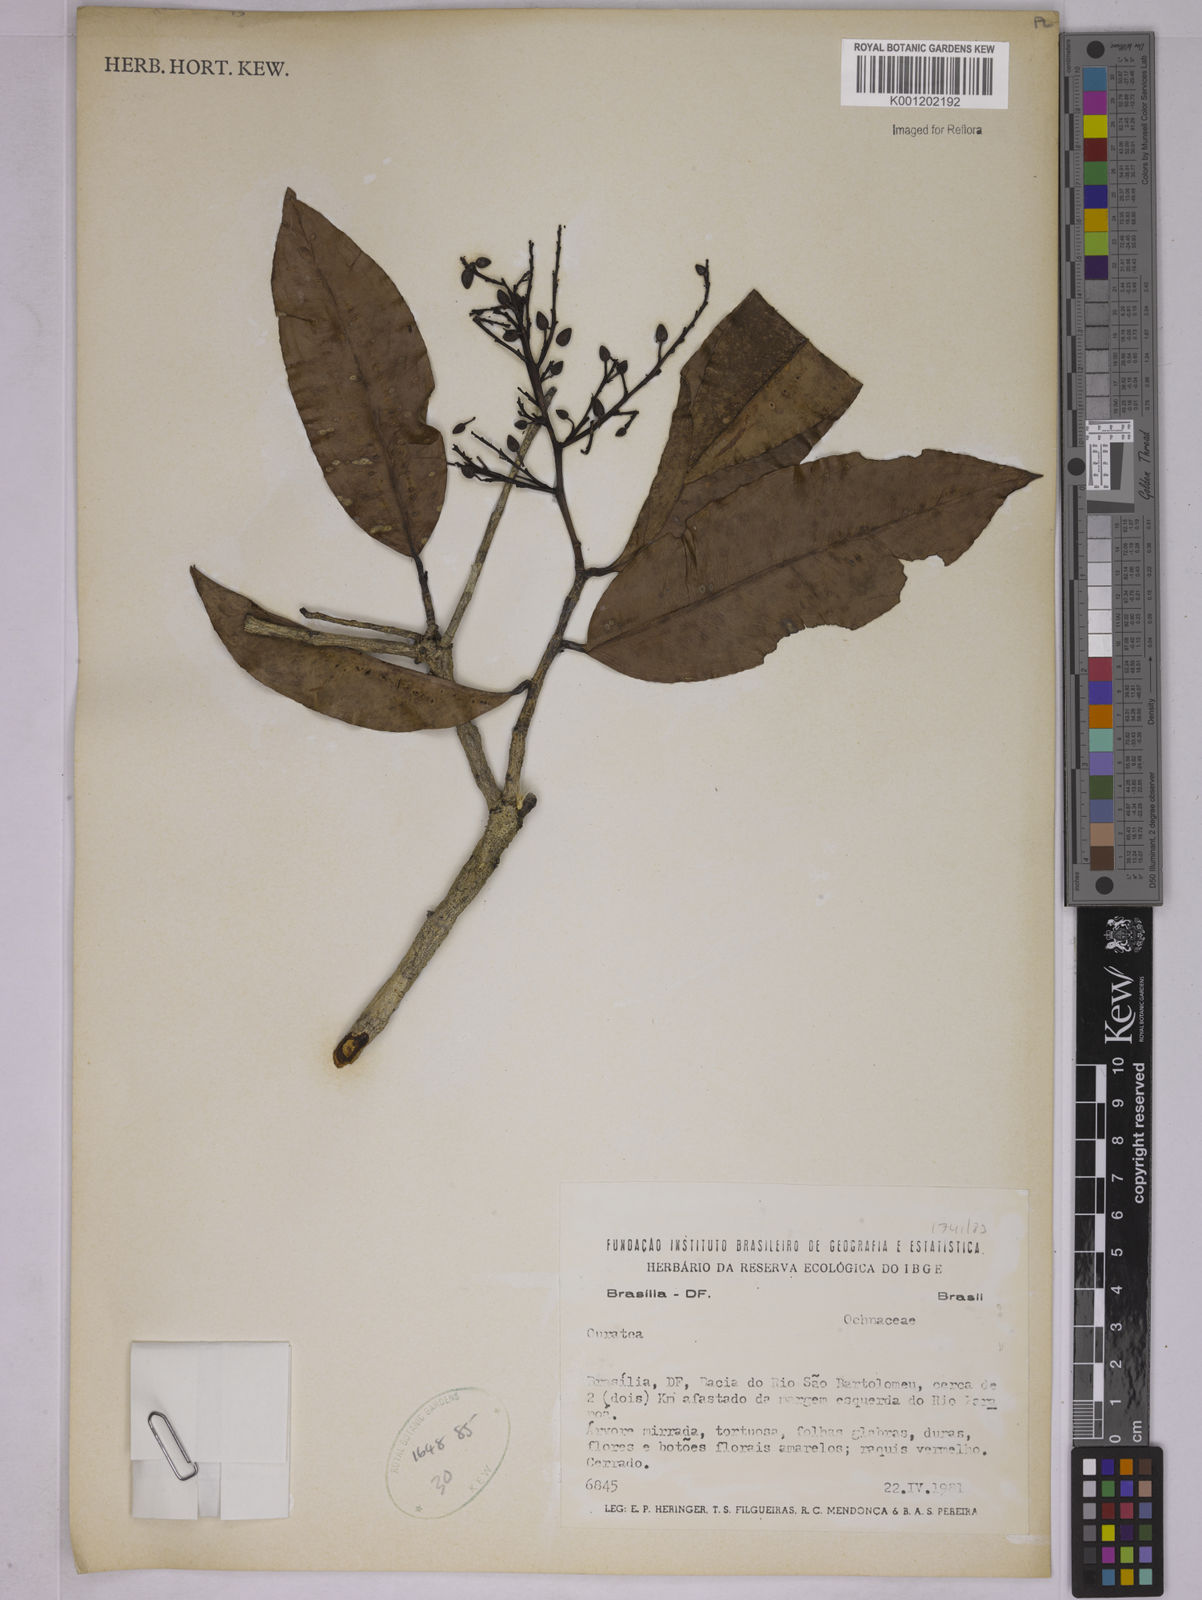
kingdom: Plantae
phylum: Tracheophyta
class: Magnoliopsida
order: Malpighiales
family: Ochnaceae
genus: Ouratea
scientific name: Ouratea
